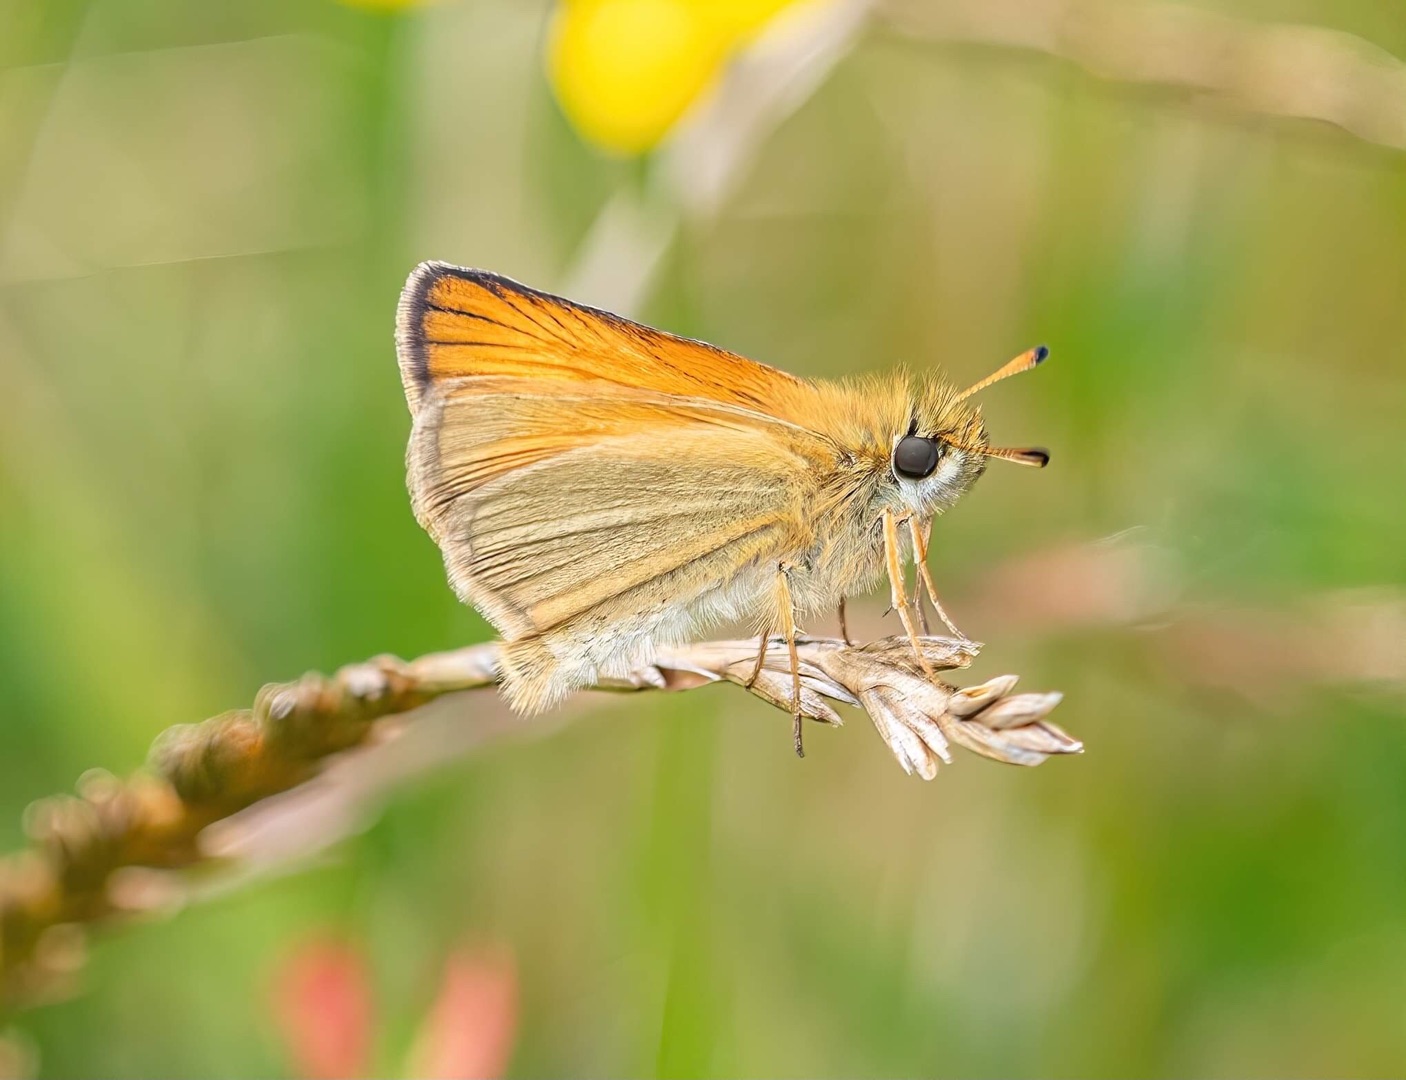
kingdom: Animalia
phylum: Arthropoda
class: Insecta
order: Lepidoptera
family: Hesperiidae
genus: Thymelicus
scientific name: Thymelicus lineola
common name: Stregbredpande
